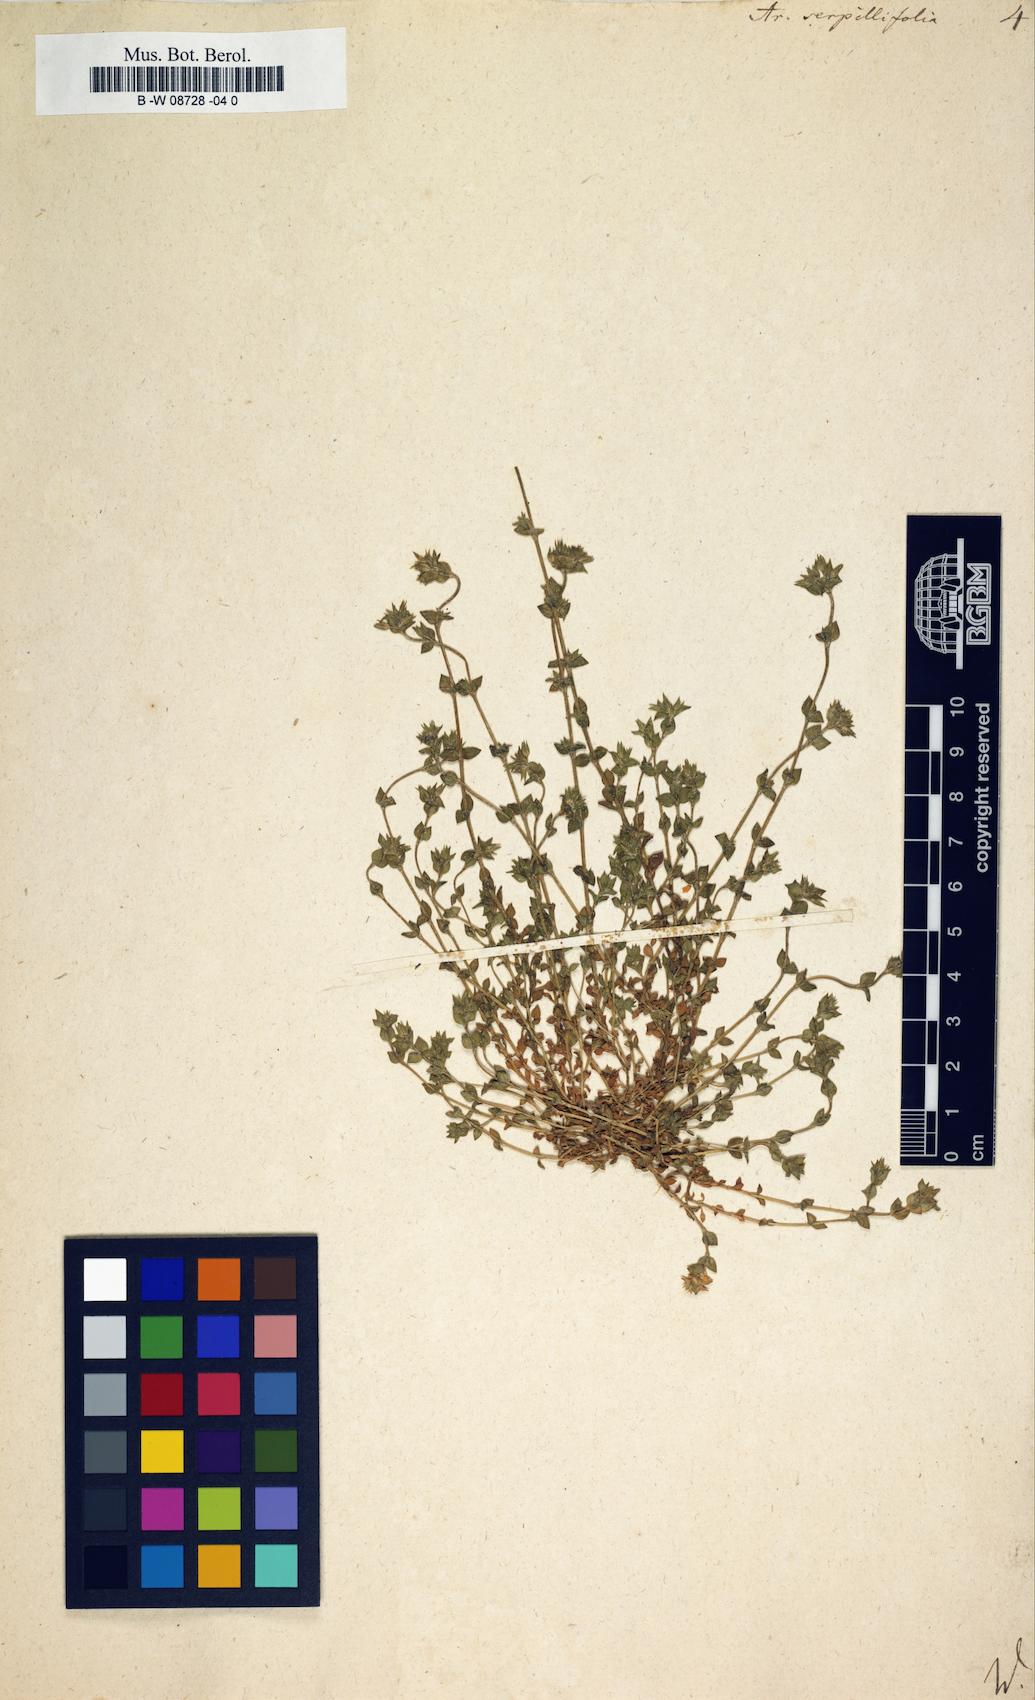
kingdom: Plantae
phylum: Tracheophyta
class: Magnoliopsida
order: Caryophyllales
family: Caryophyllaceae
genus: Arenaria
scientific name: Arenaria serpyllifolia
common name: Thyme-leaved sandwort
